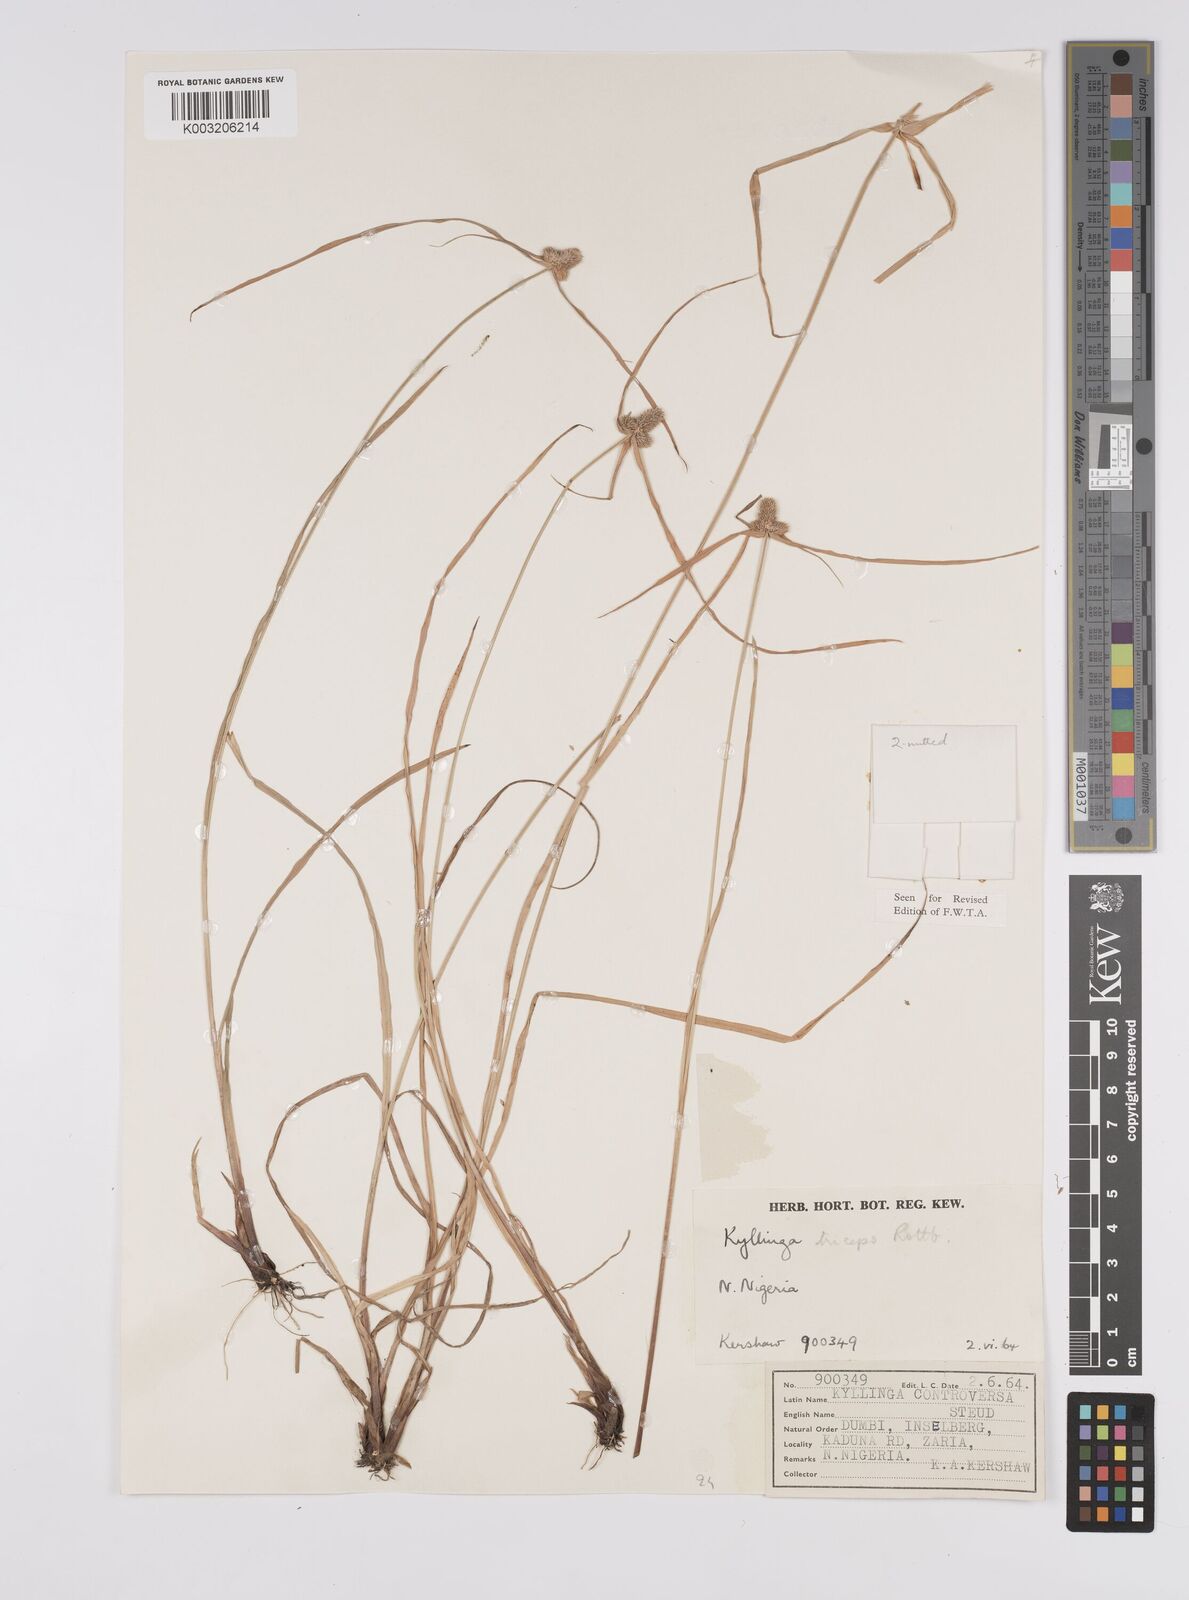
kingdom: Plantae
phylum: Tracheophyta
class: Liliopsida
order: Poales
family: Cyperaceae
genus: Cyperus
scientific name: Cyperus
